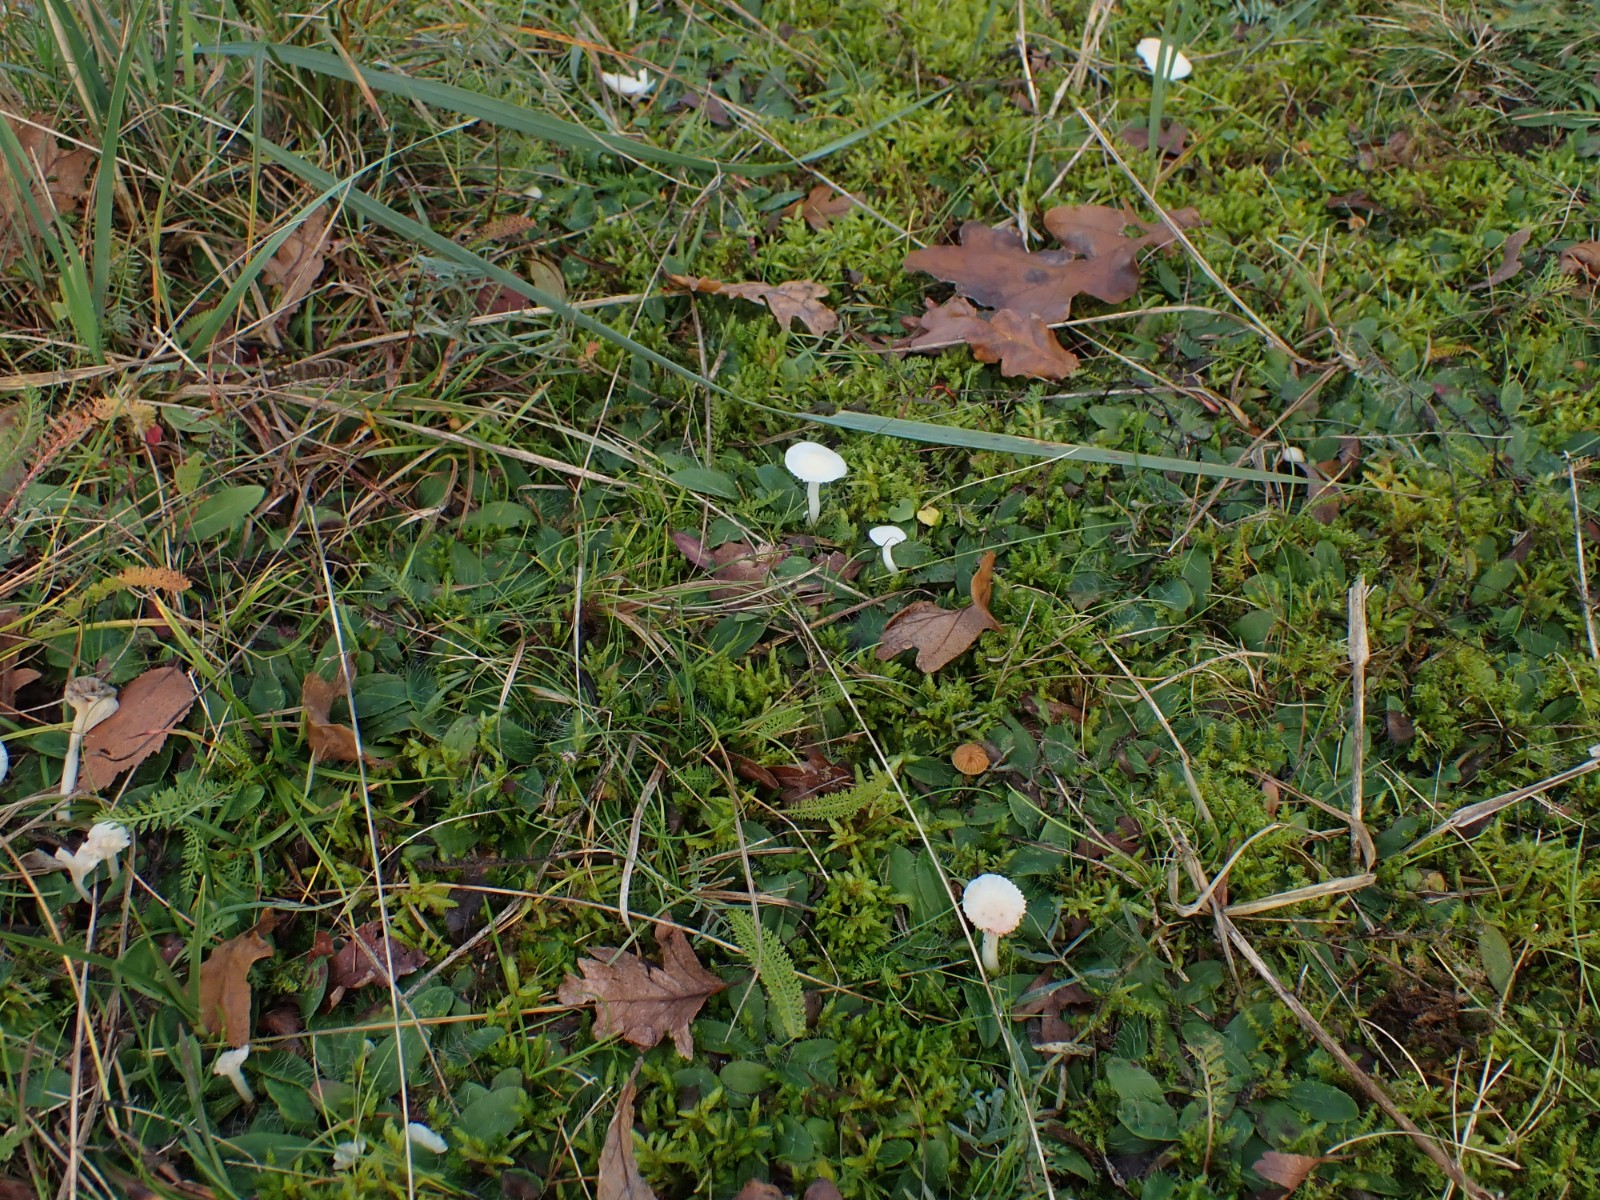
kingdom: Fungi
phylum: Basidiomycota
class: Agaricomycetes
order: Agaricales
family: Hygrophoraceae
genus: Cuphophyllus
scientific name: Cuphophyllus virgineus
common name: snehvid vokshat
